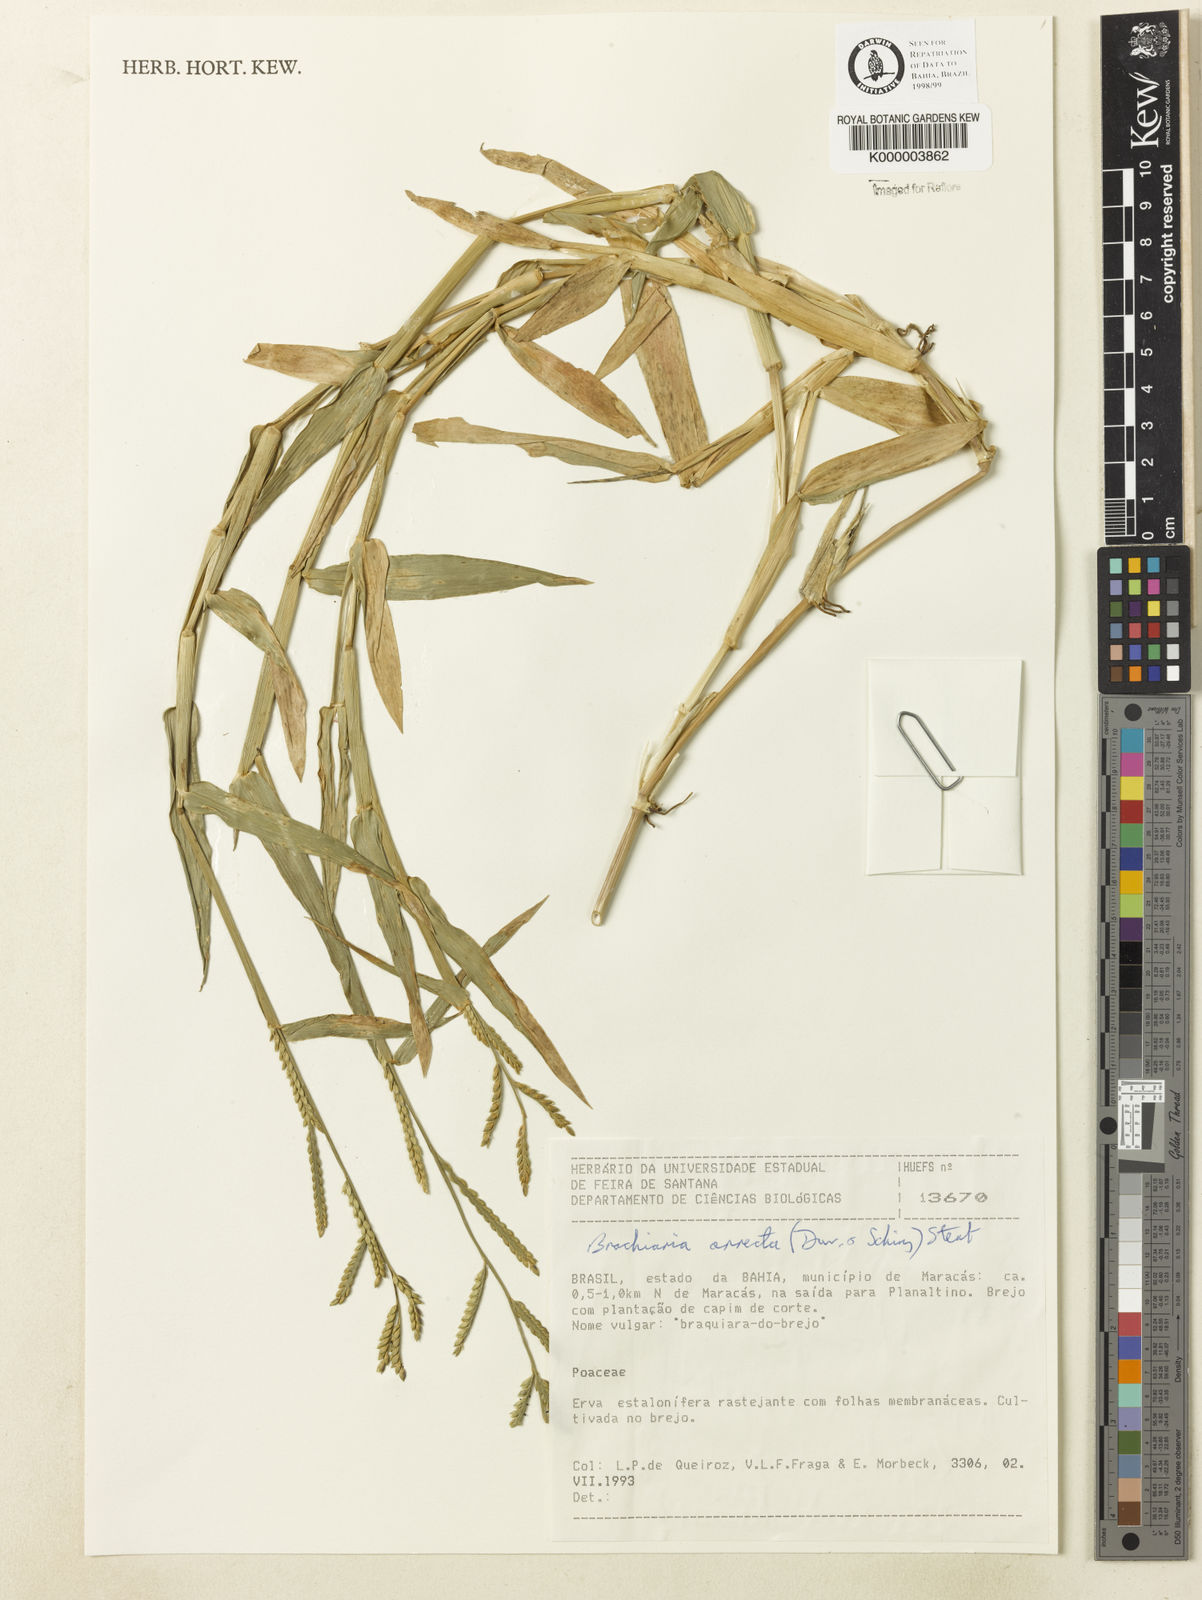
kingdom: Plantae
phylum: Tracheophyta
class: Liliopsida
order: Poales
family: Poaceae
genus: Urochloa
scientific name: Urochloa arrecta
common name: African signalgrass
